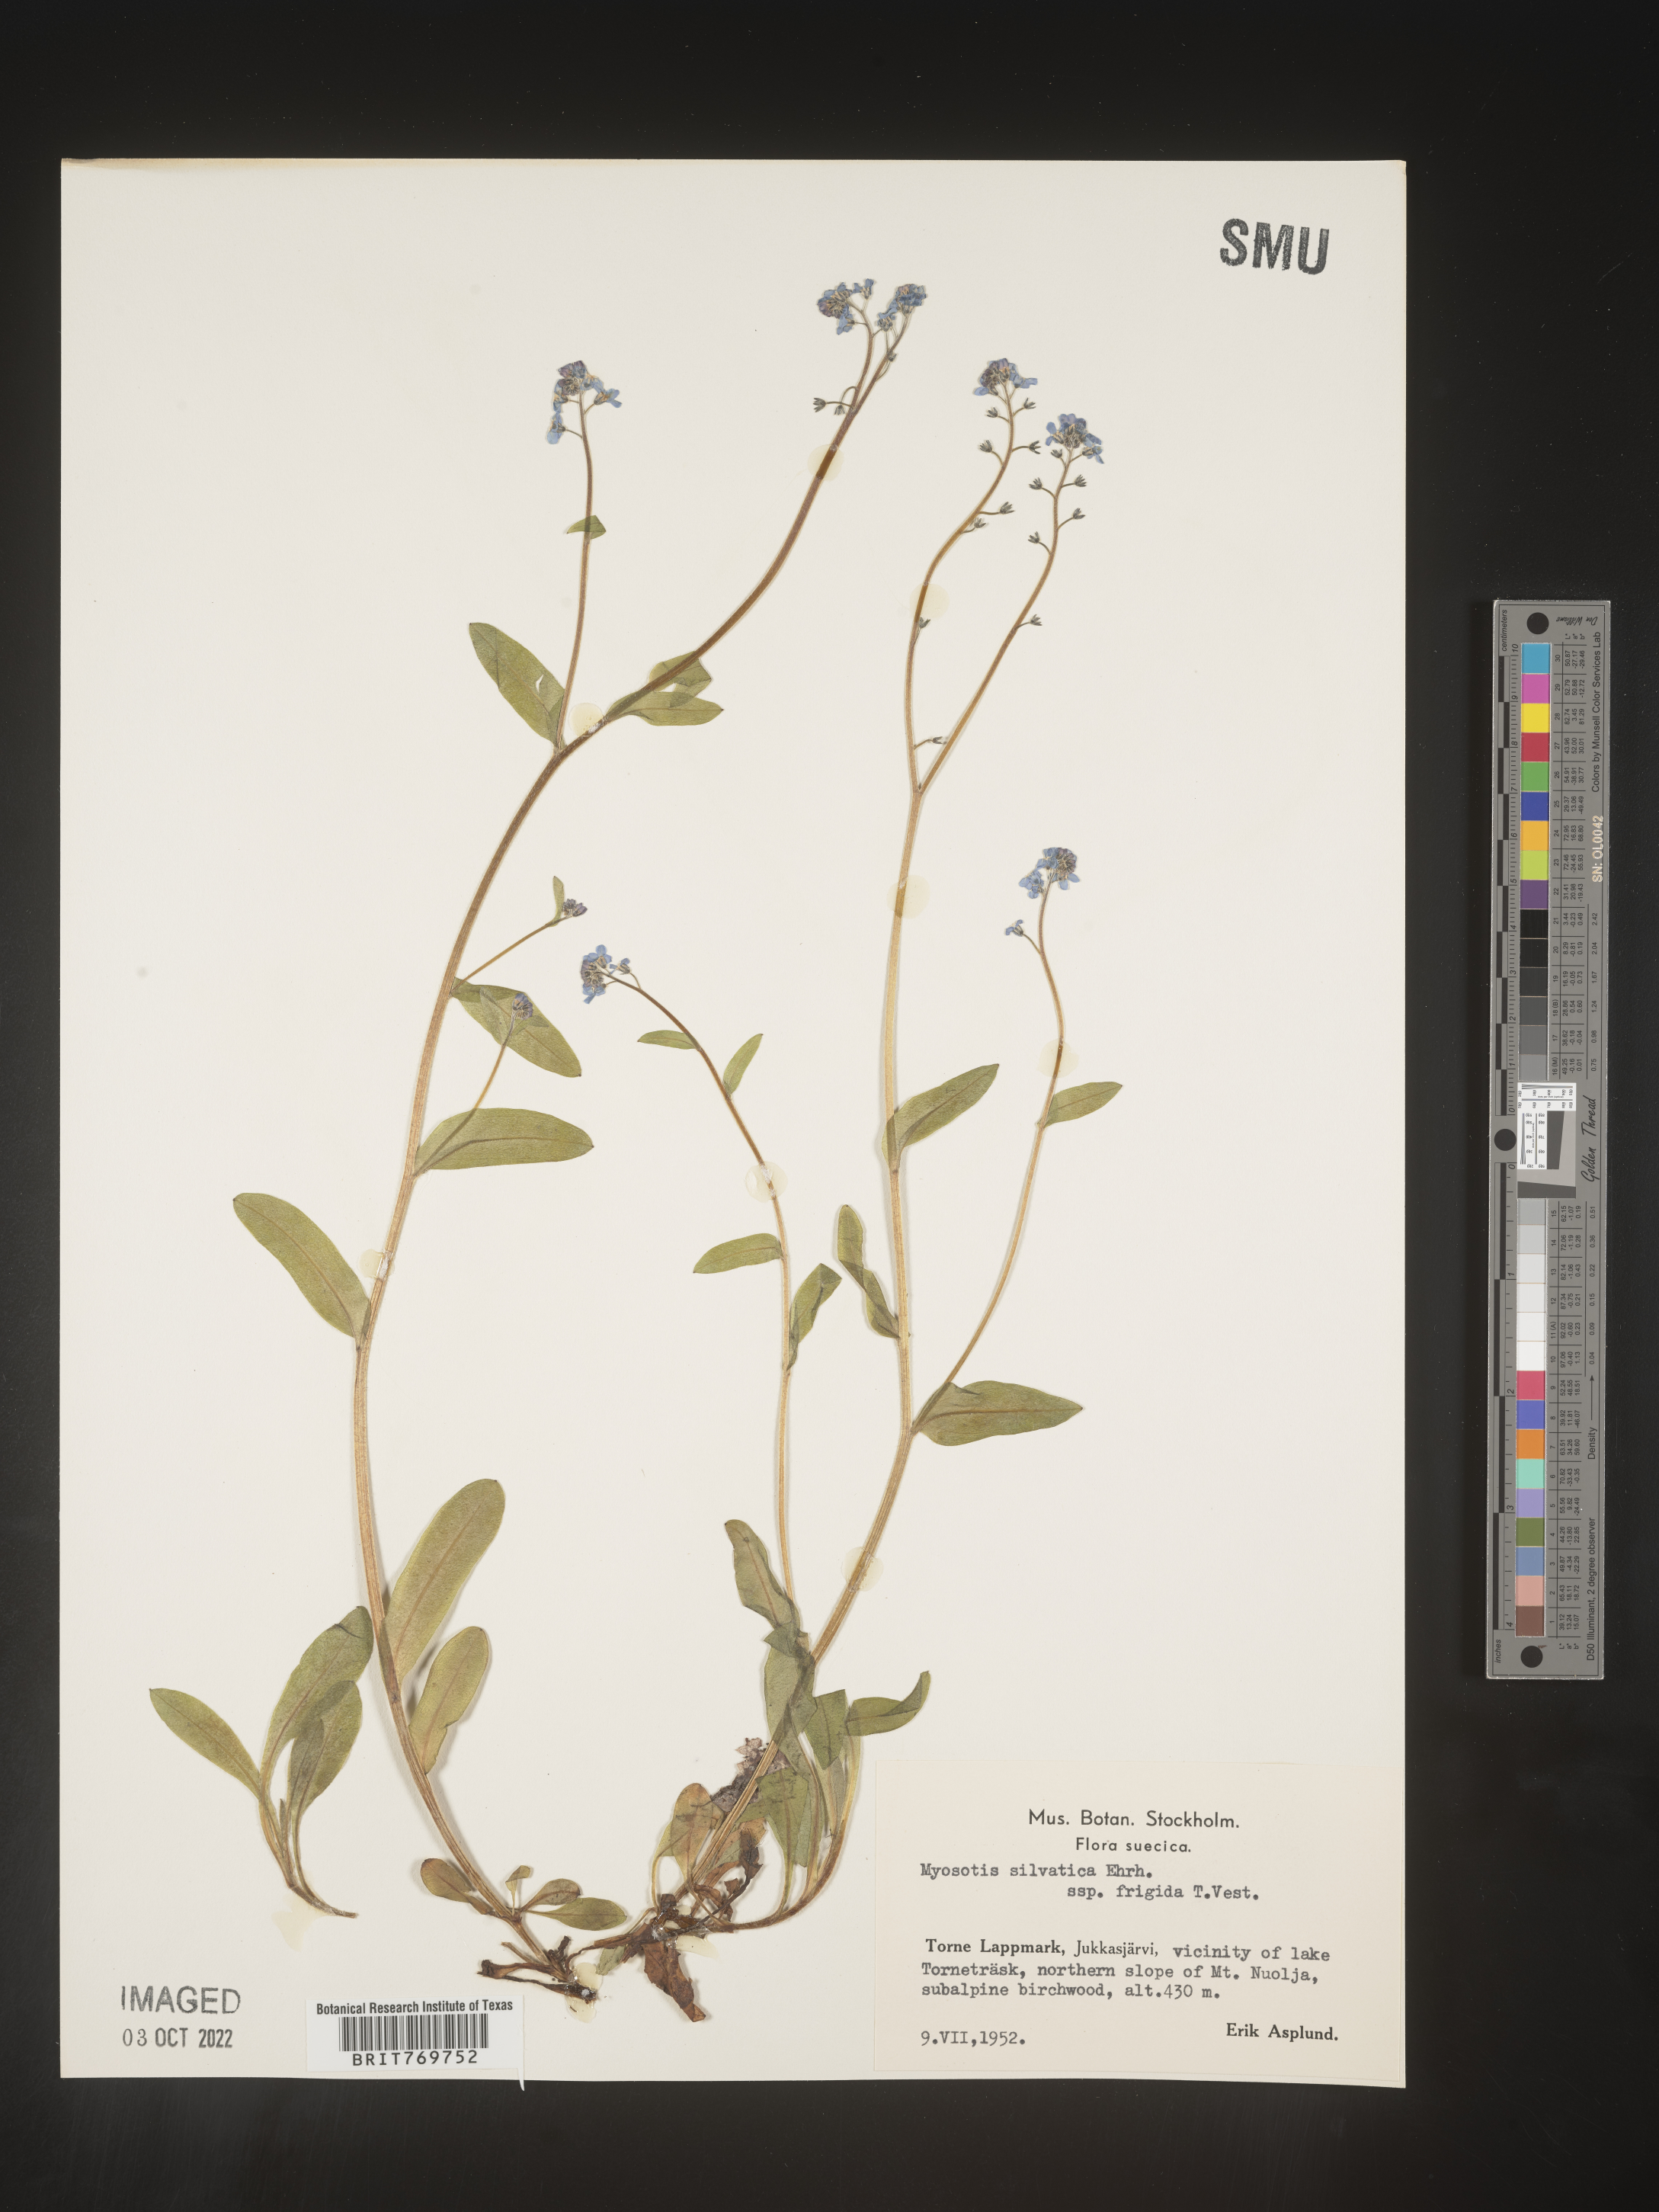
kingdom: Plantae
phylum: Tracheophyta
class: Magnoliopsida
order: Boraginales
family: Boraginaceae
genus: Myosotis
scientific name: Myosotis
